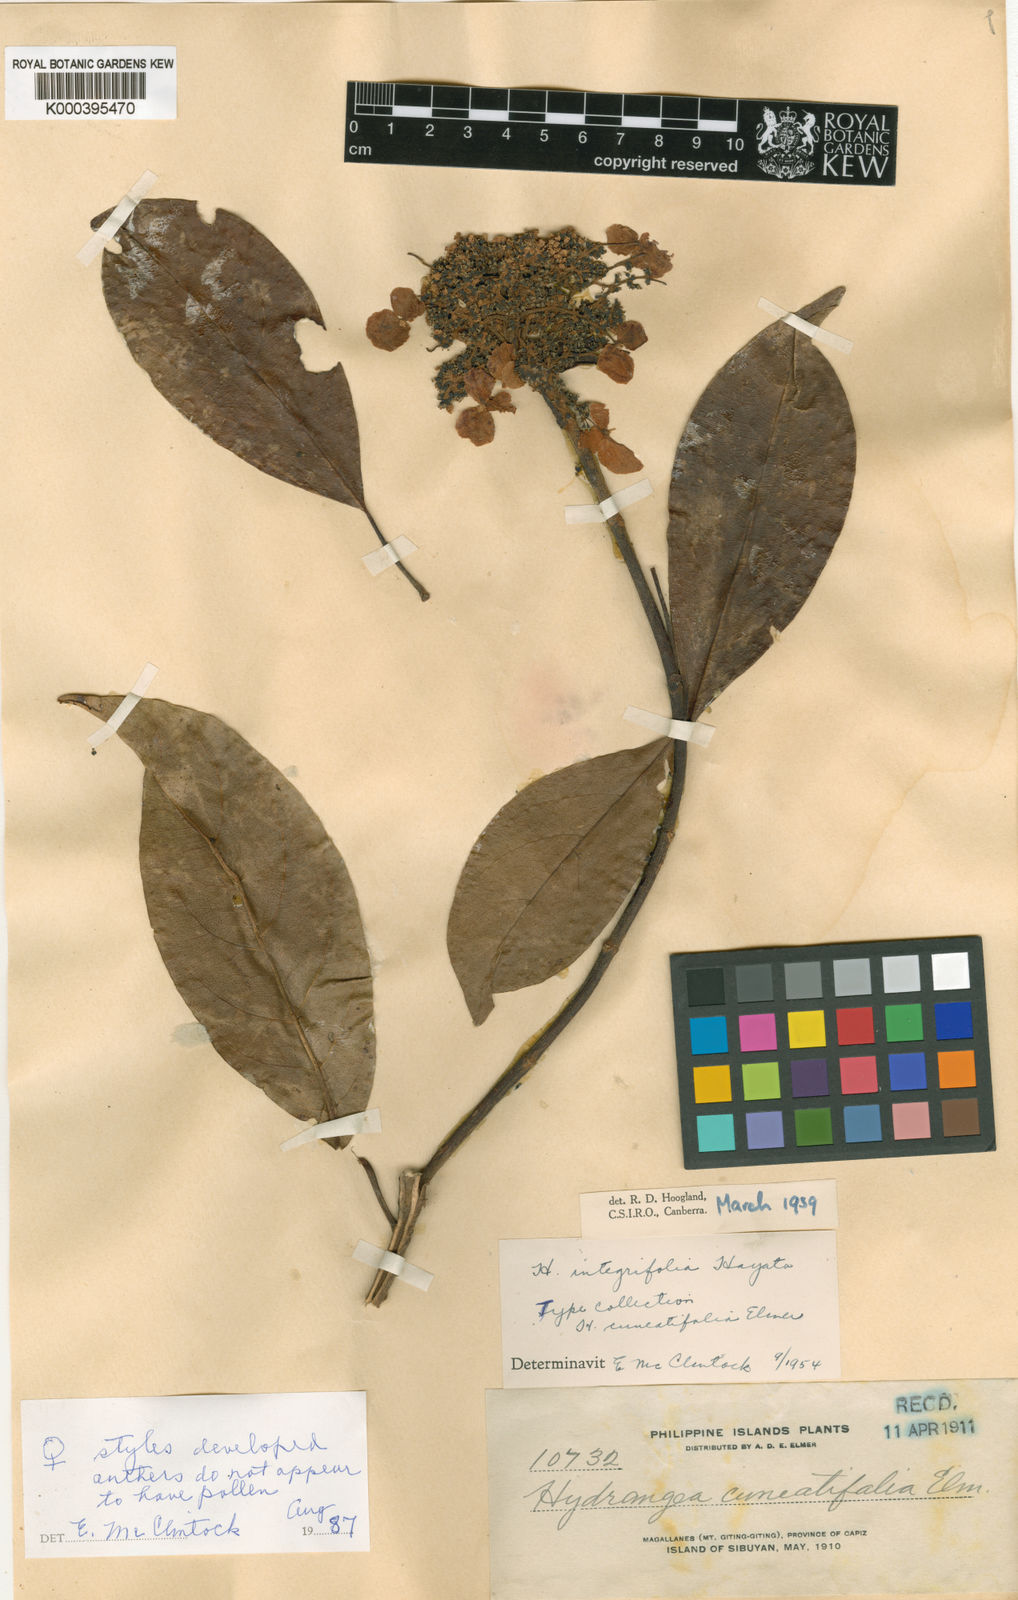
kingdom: Plantae
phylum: Tracheophyta
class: Magnoliopsida
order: Cornales
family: Hydrangeaceae
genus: Hydrangea
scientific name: Hydrangea integrifolia
